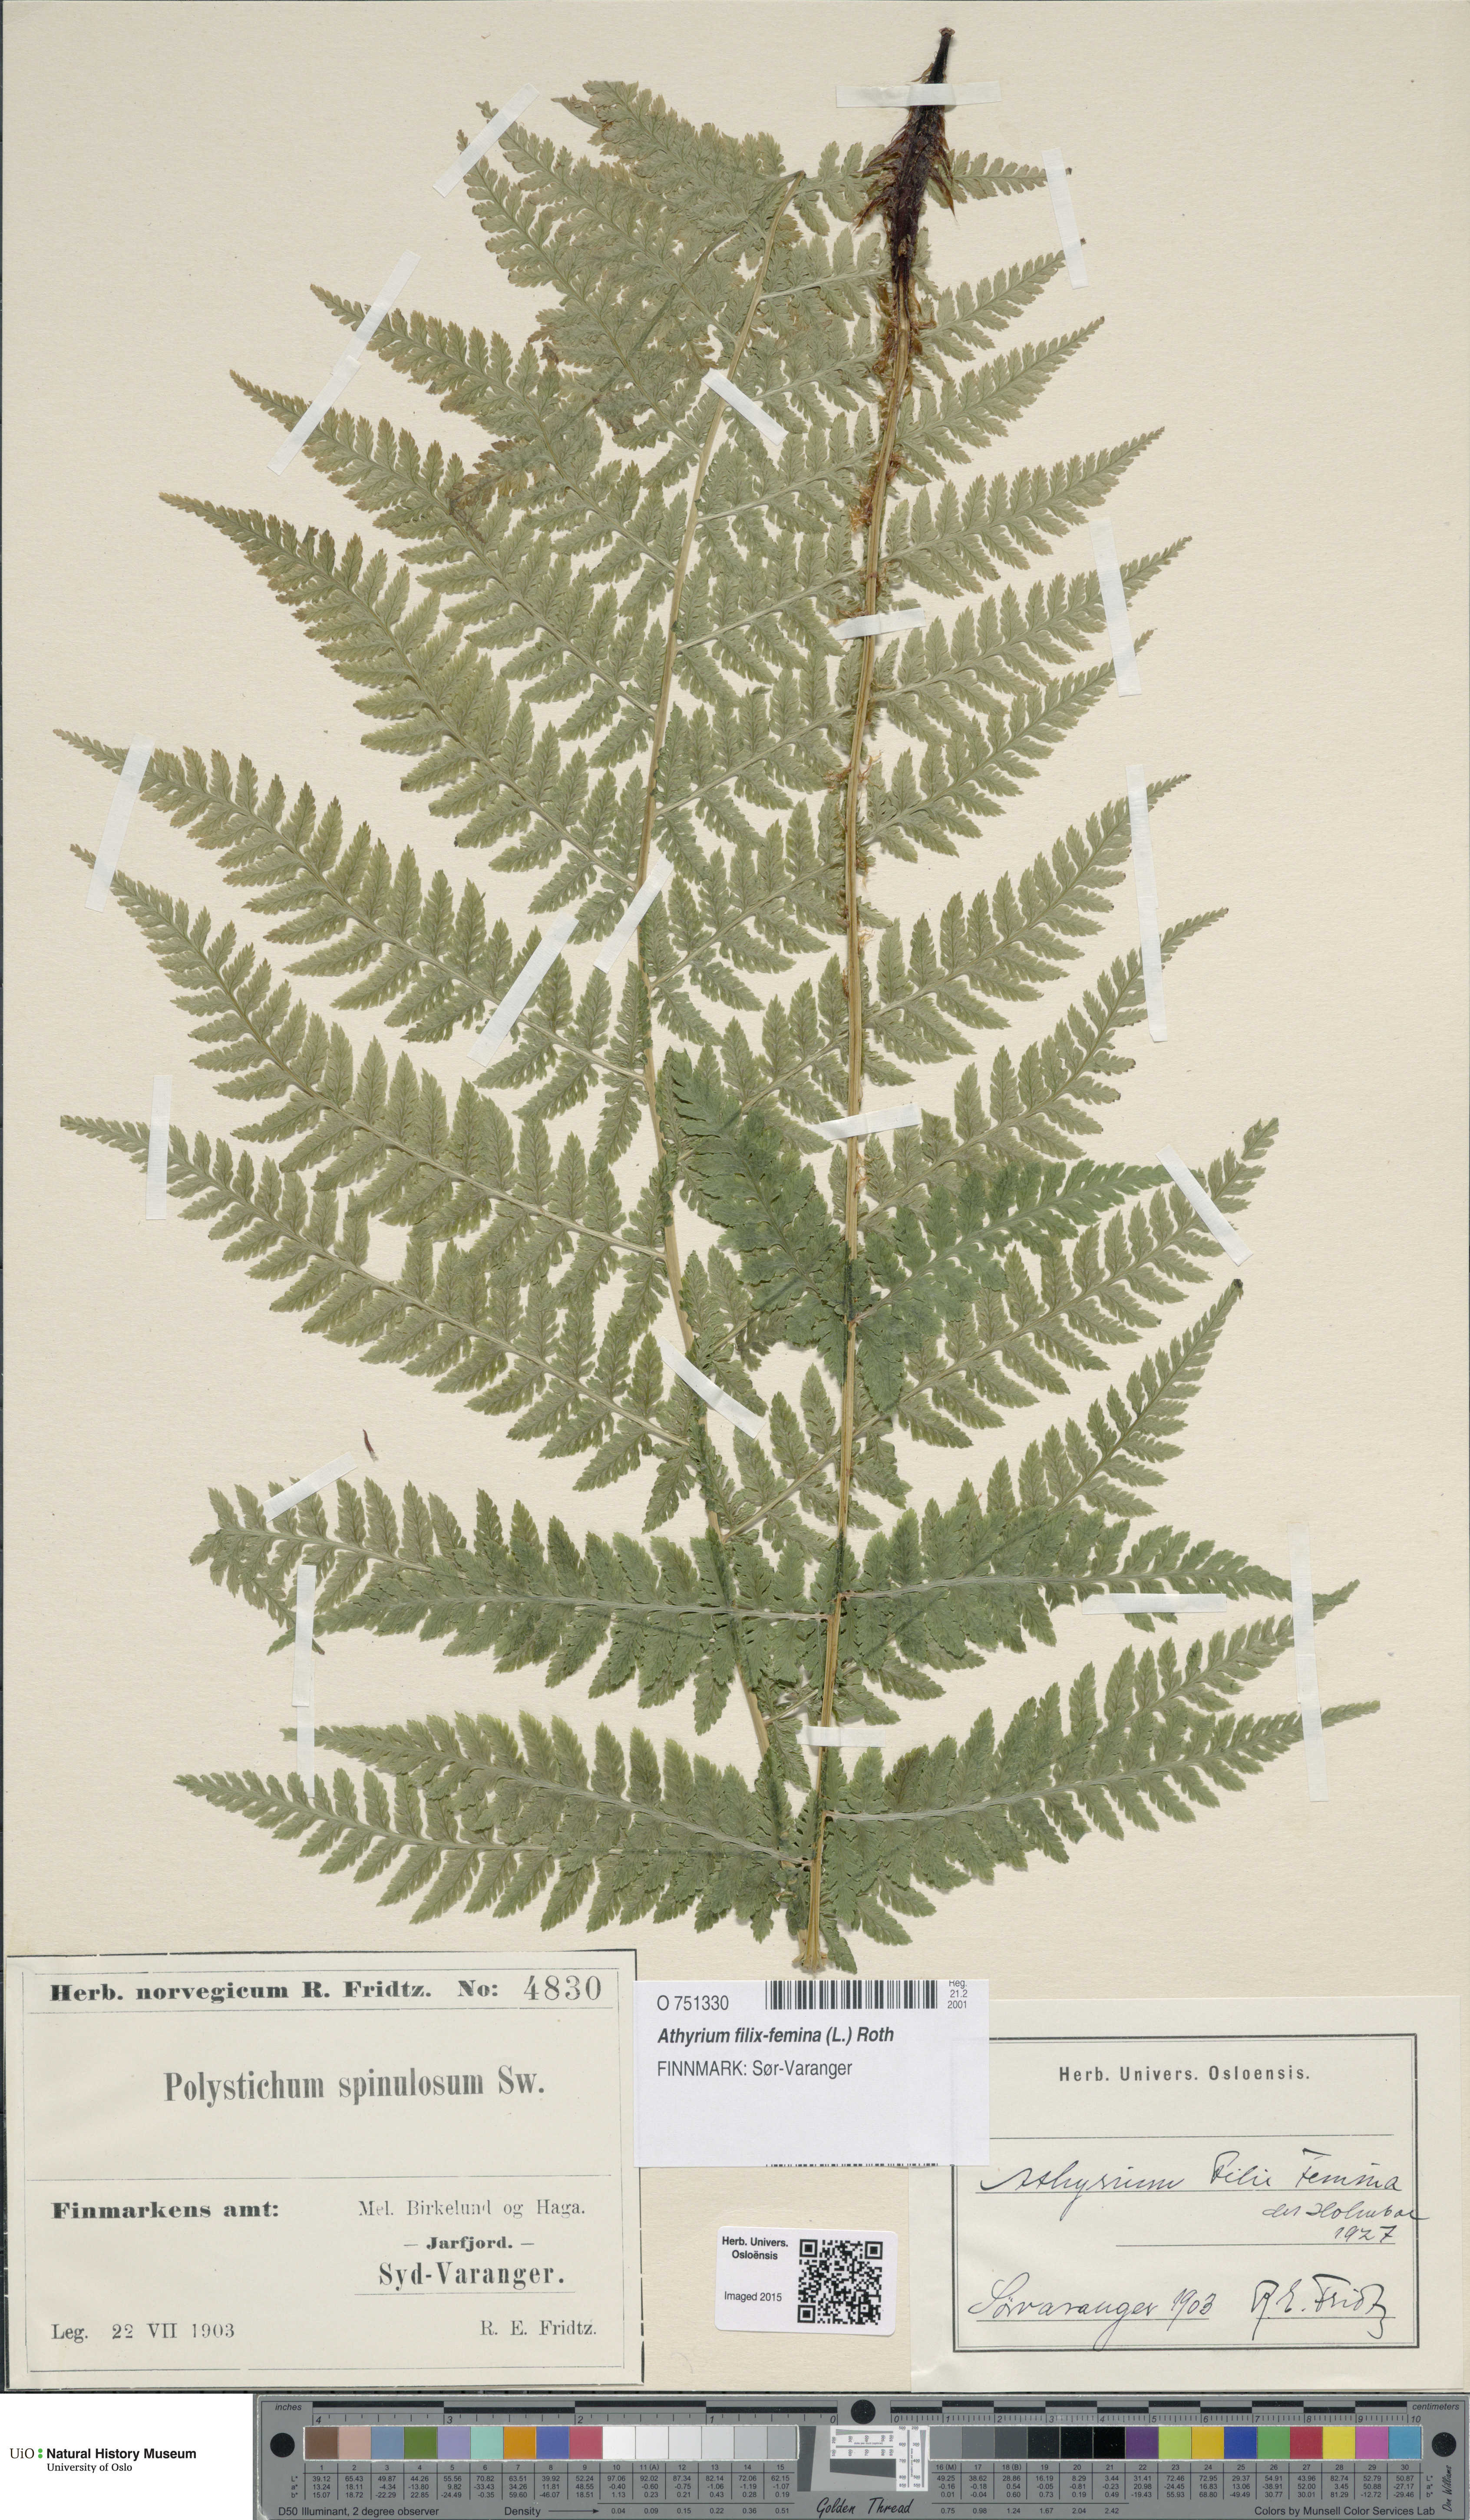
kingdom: Plantae
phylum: Tracheophyta
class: Polypodiopsida
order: Polypodiales
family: Athyriaceae
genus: Athyrium
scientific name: Athyrium filix-femina
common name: Lady fern
